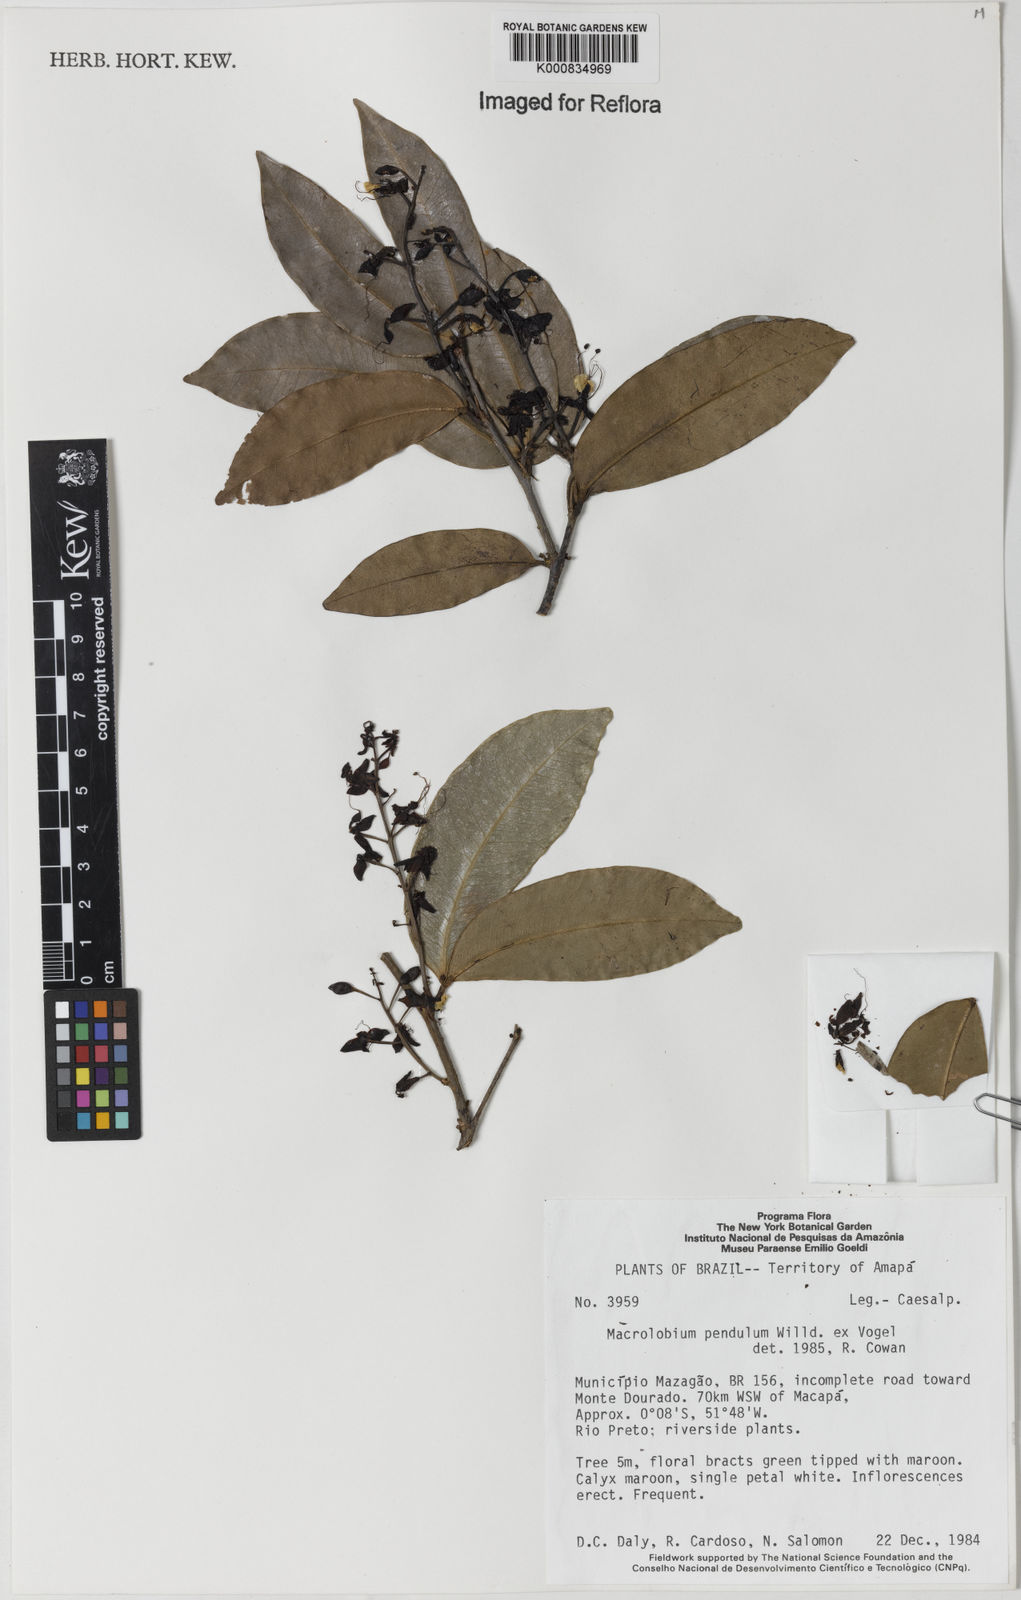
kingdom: Plantae
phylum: Tracheophyta
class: Magnoliopsida
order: Fabales
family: Fabaceae
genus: Macrolobium
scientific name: Macrolobium pendulum
